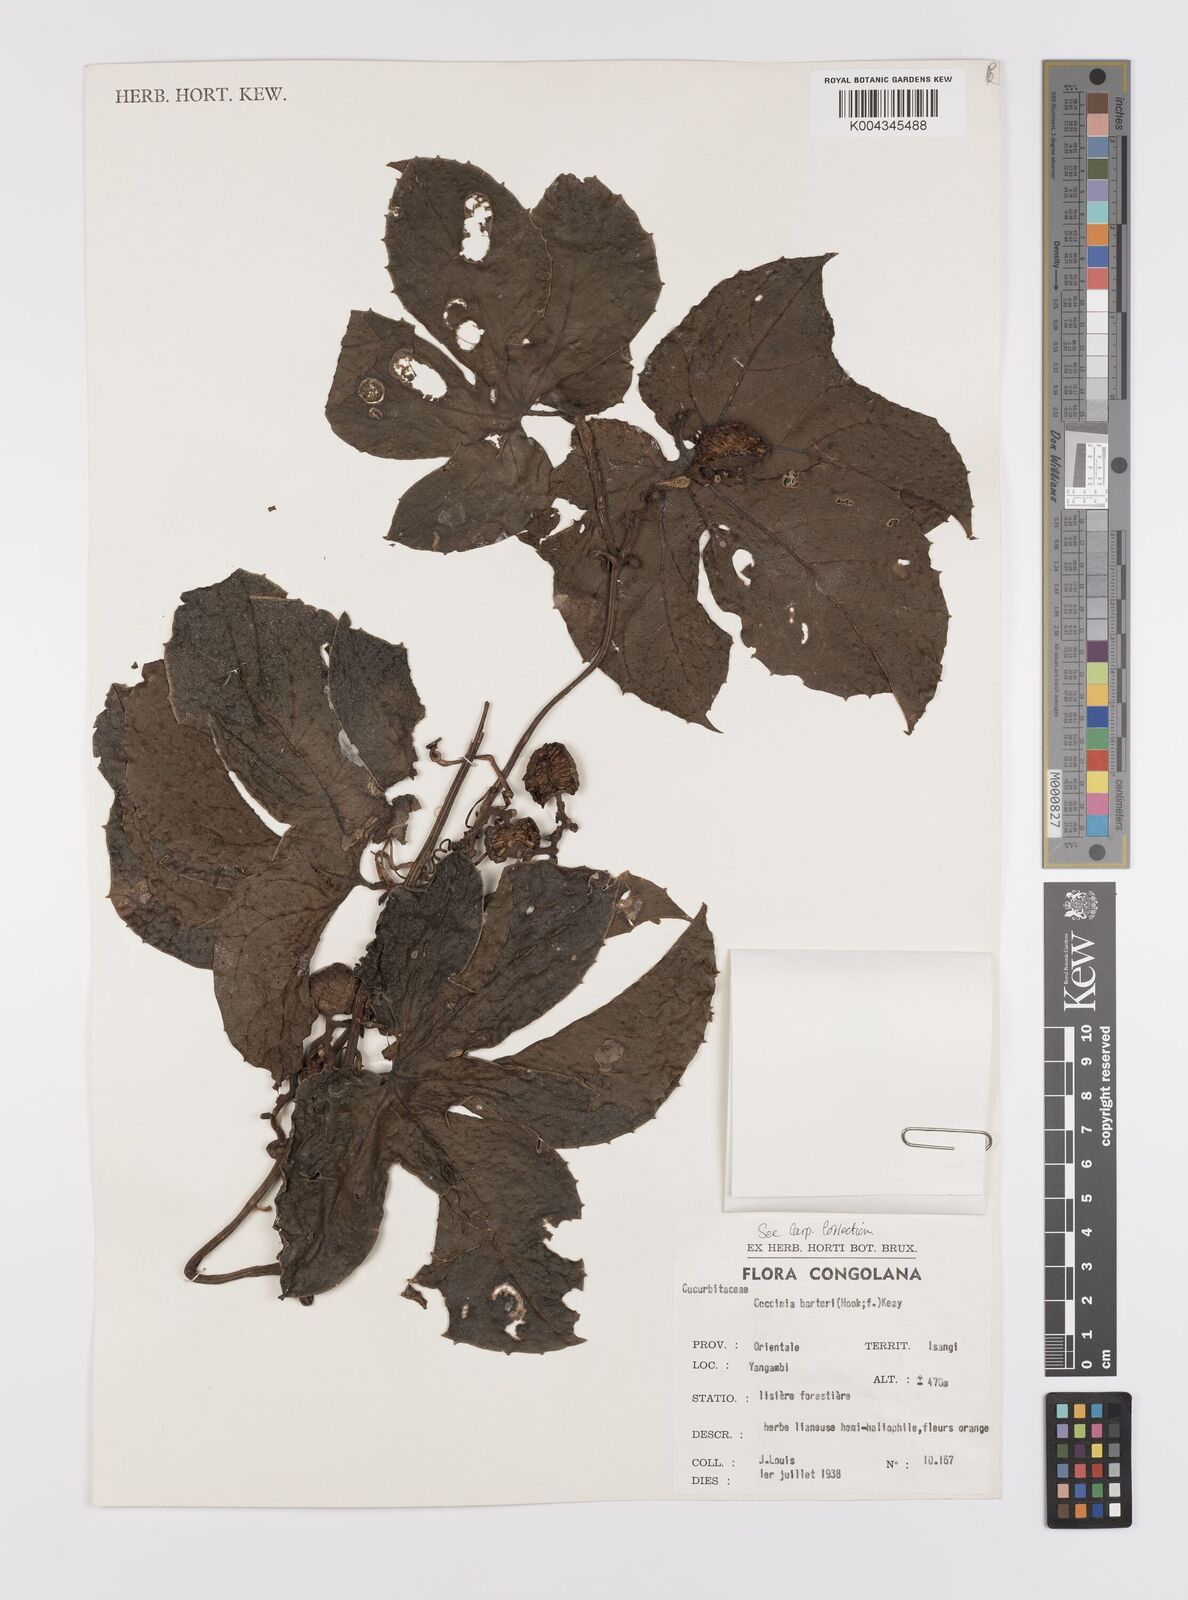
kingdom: Plantae
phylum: Tracheophyta
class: Magnoliopsida
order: Cucurbitales
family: Cucurbitaceae
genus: Coccinia
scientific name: Coccinia barteri
